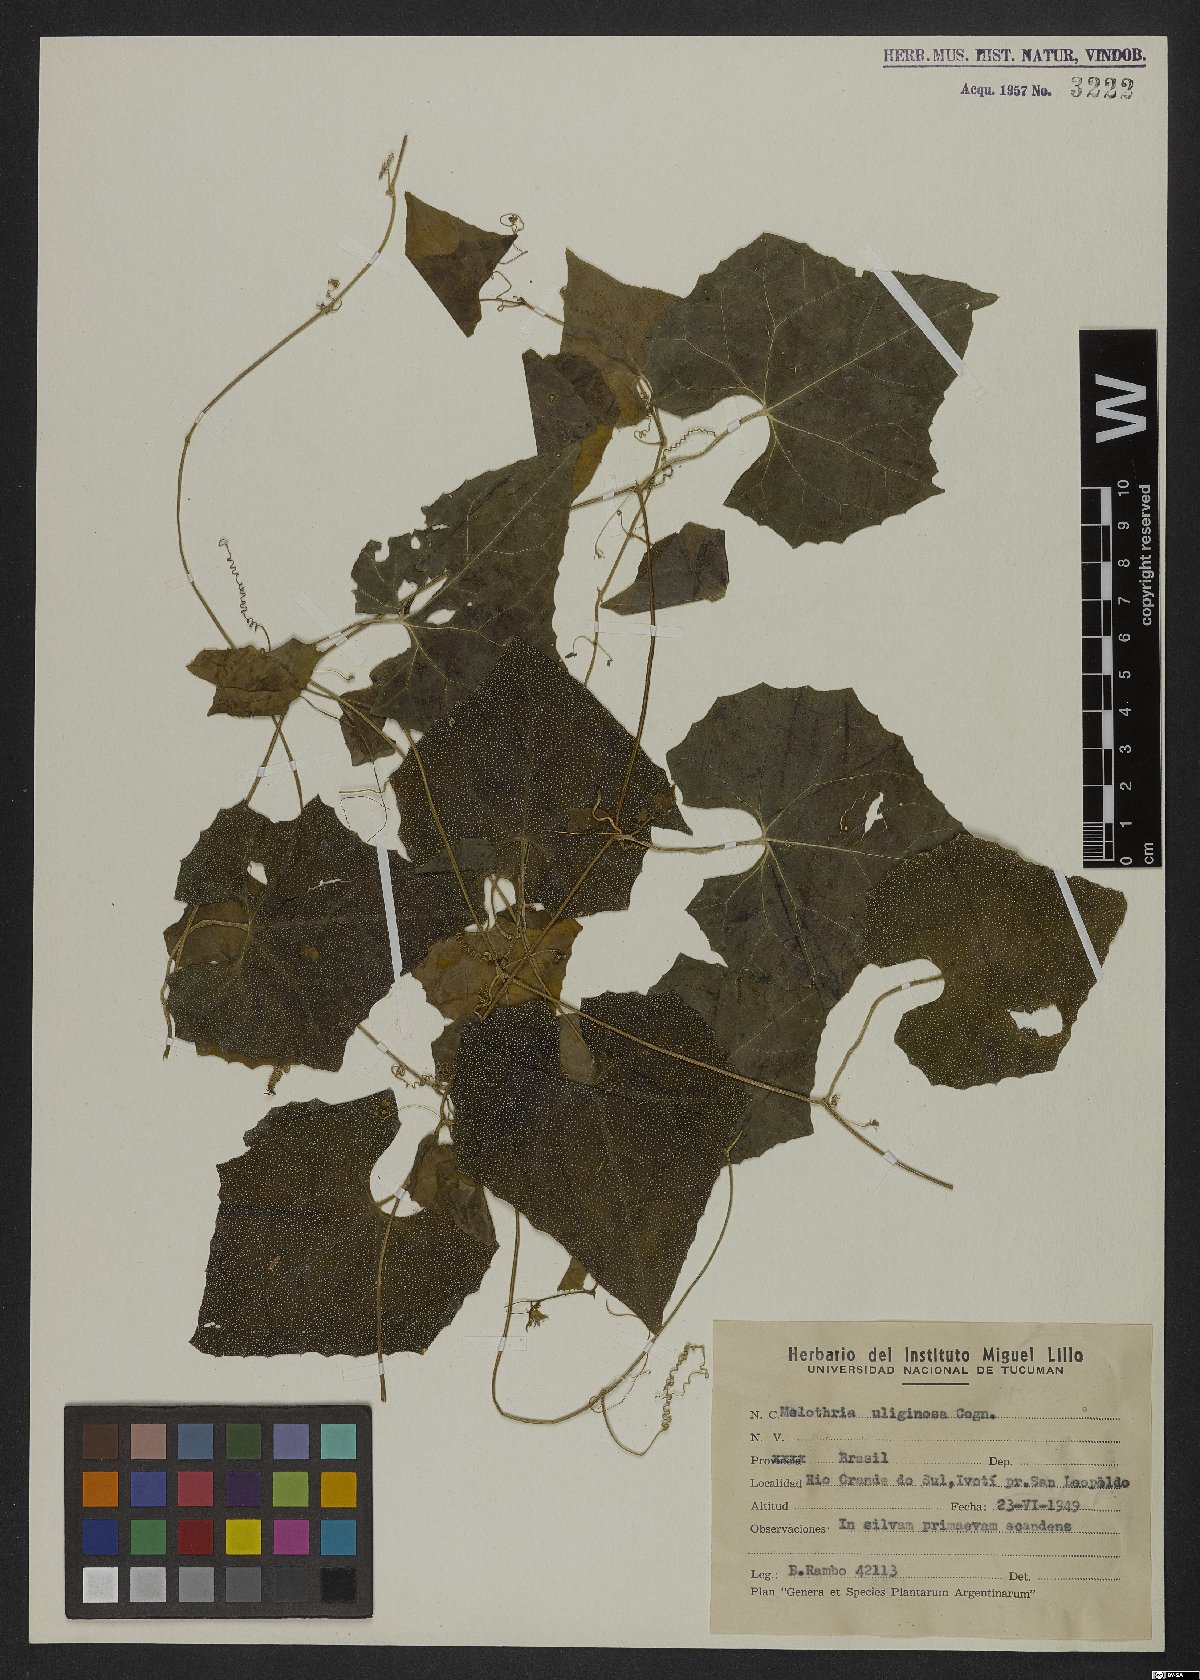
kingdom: Plantae
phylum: Tracheophyta
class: Magnoliopsida
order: Cucurbitales
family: Cucurbitaceae
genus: Melothria
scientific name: Melothria uliginosa
